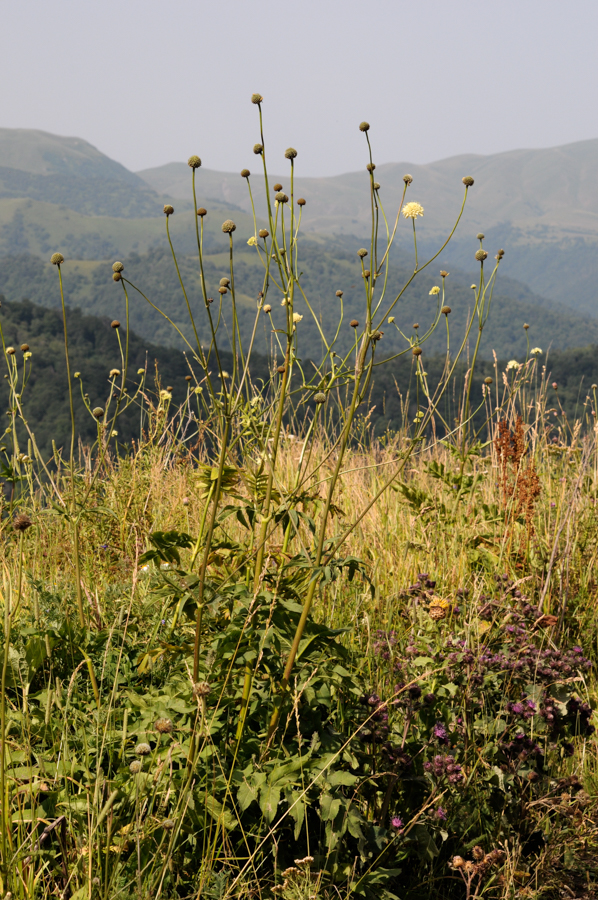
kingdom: Plantae
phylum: Tracheophyta
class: Magnoliopsida
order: Dipsacales
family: Caprifoliaceae
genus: Cephalaria
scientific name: Cephalaria gigantea
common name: Tatarian cephalaria
